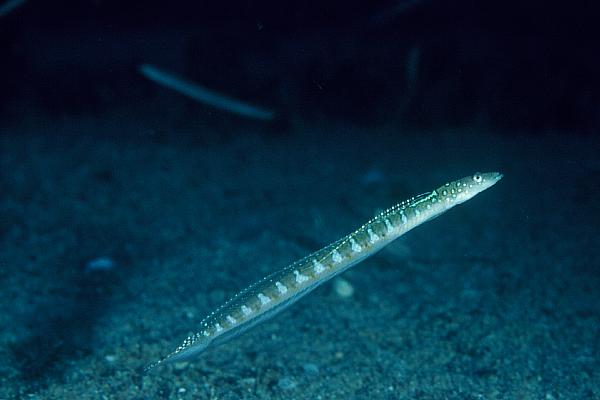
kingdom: Animalia
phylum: Chordata
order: Perciformes
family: Trichonotidae
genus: Trichonotus
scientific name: Trichonotus nikii
